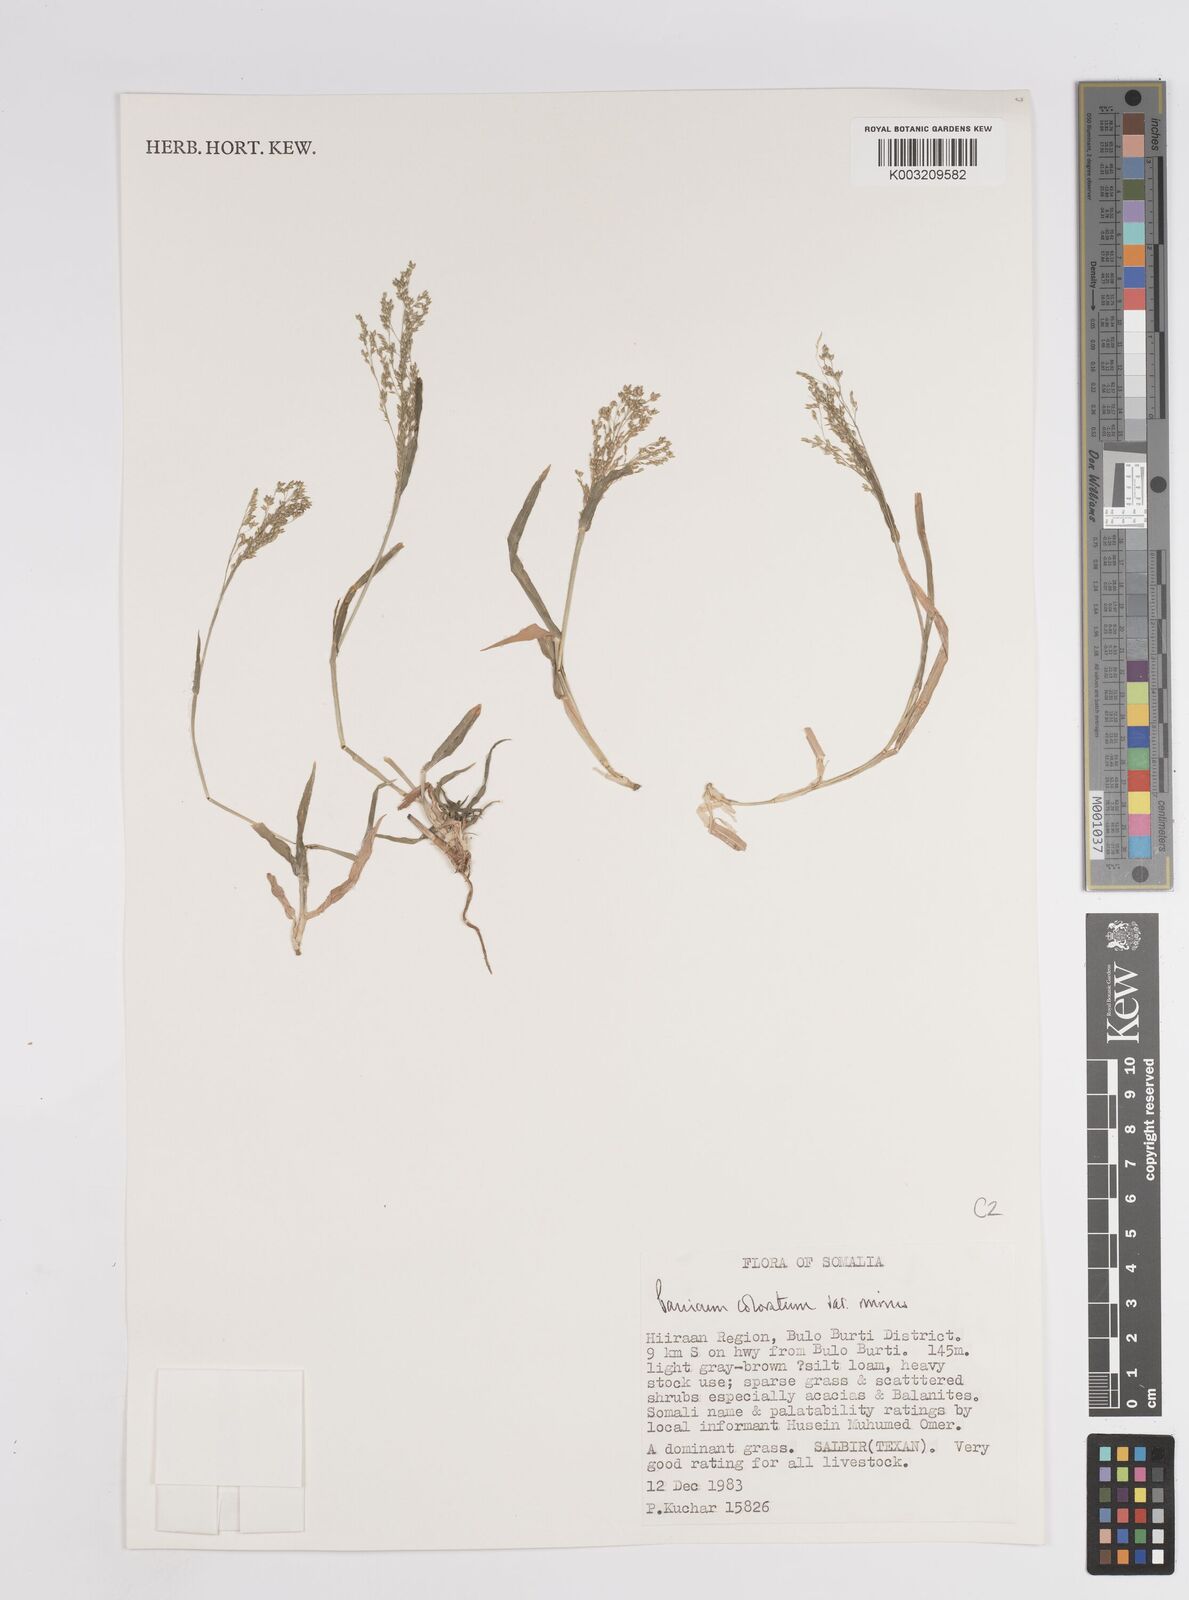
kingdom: Plantae
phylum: Tracheophyta
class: Liliopsida
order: Poales
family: Poaceae
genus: Panicum
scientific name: Panicum coloratum
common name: Kleingrass
